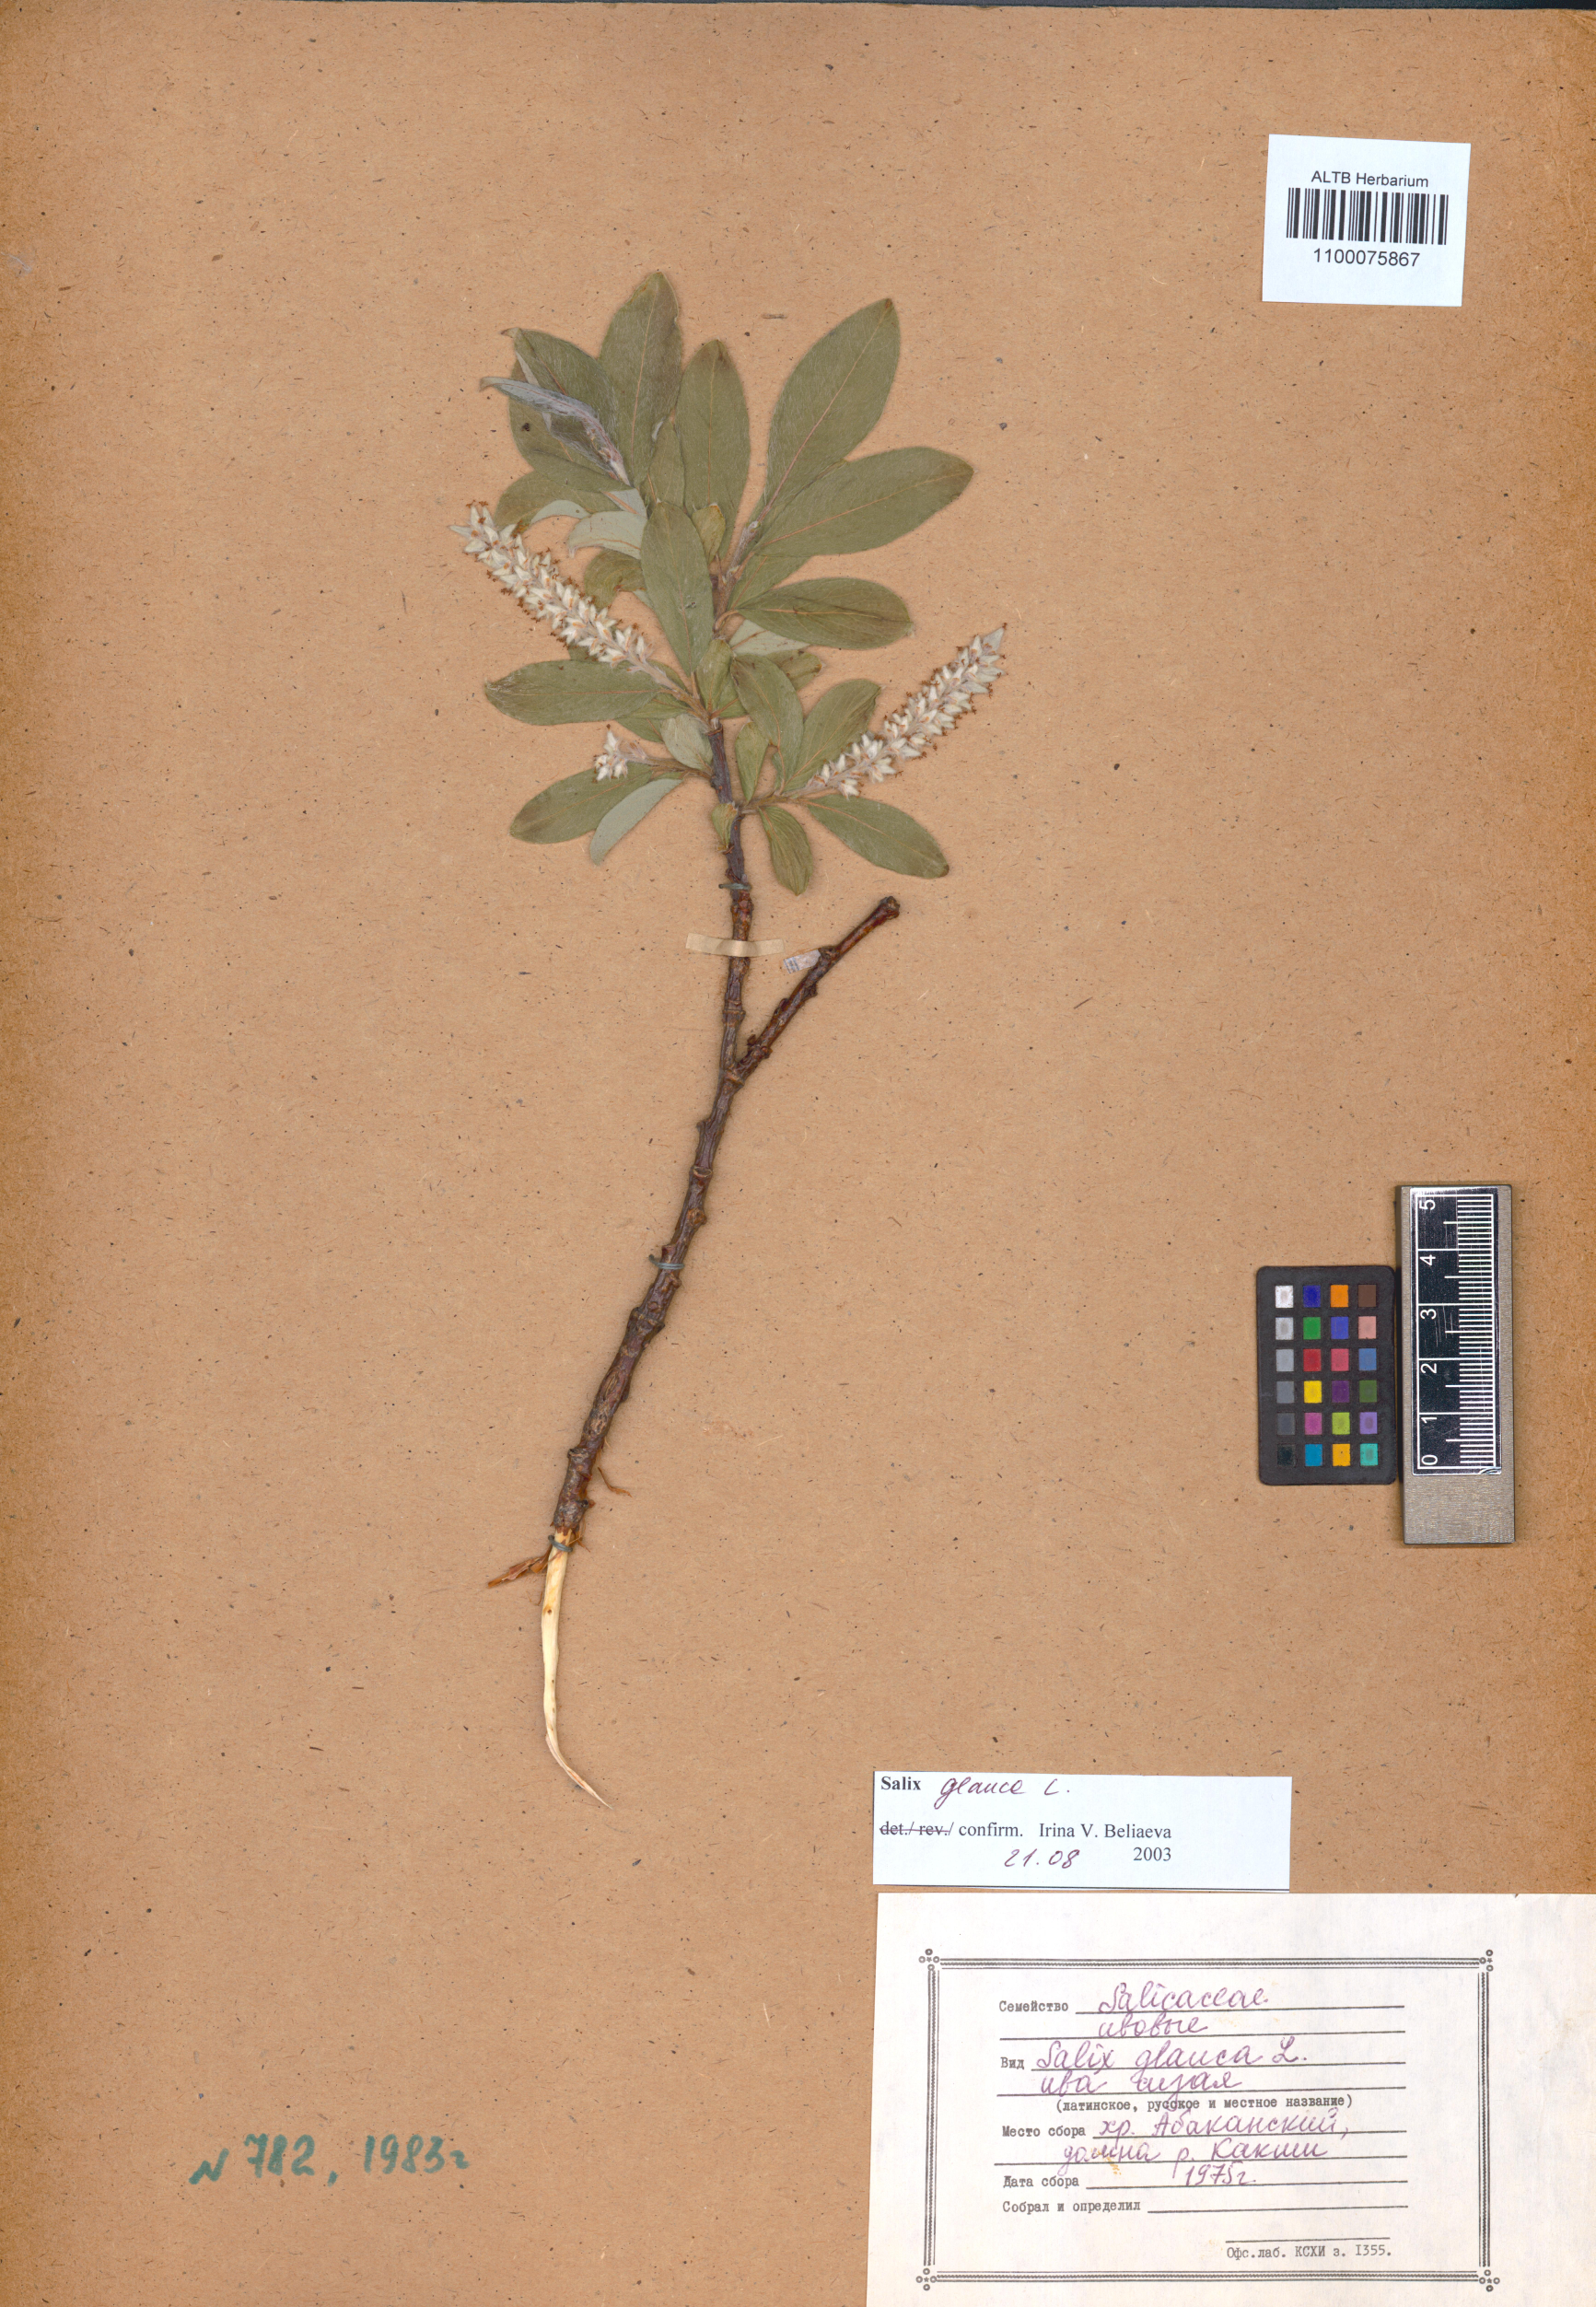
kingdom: Plantae
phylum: Tracheophyta
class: Magnoliopsida
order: Malpighiales
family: Salicaceae
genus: Salix
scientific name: Salix glauca
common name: Glaucous willow
